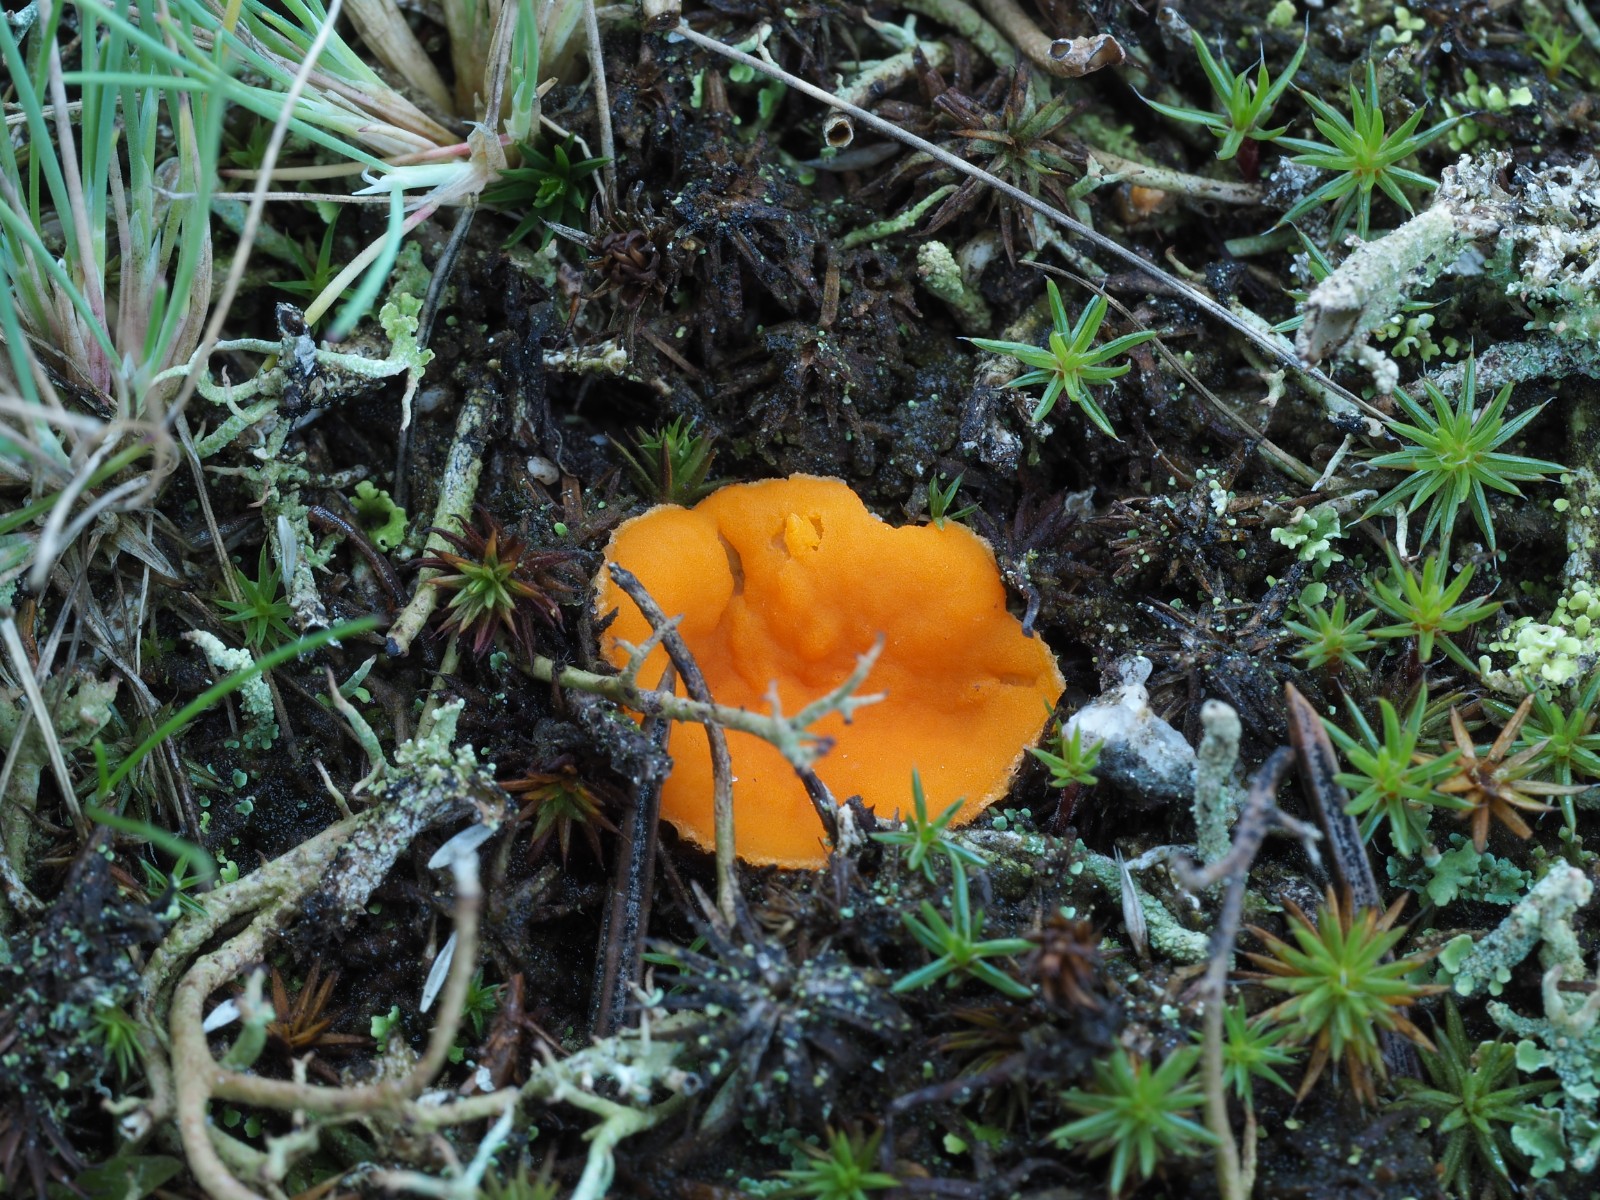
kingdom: Fungi
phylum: Ascomycota
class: Pezizomycetes
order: Pezizales
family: Pyronemataceae
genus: Neottiella
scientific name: Neottiella
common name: mosbæger
